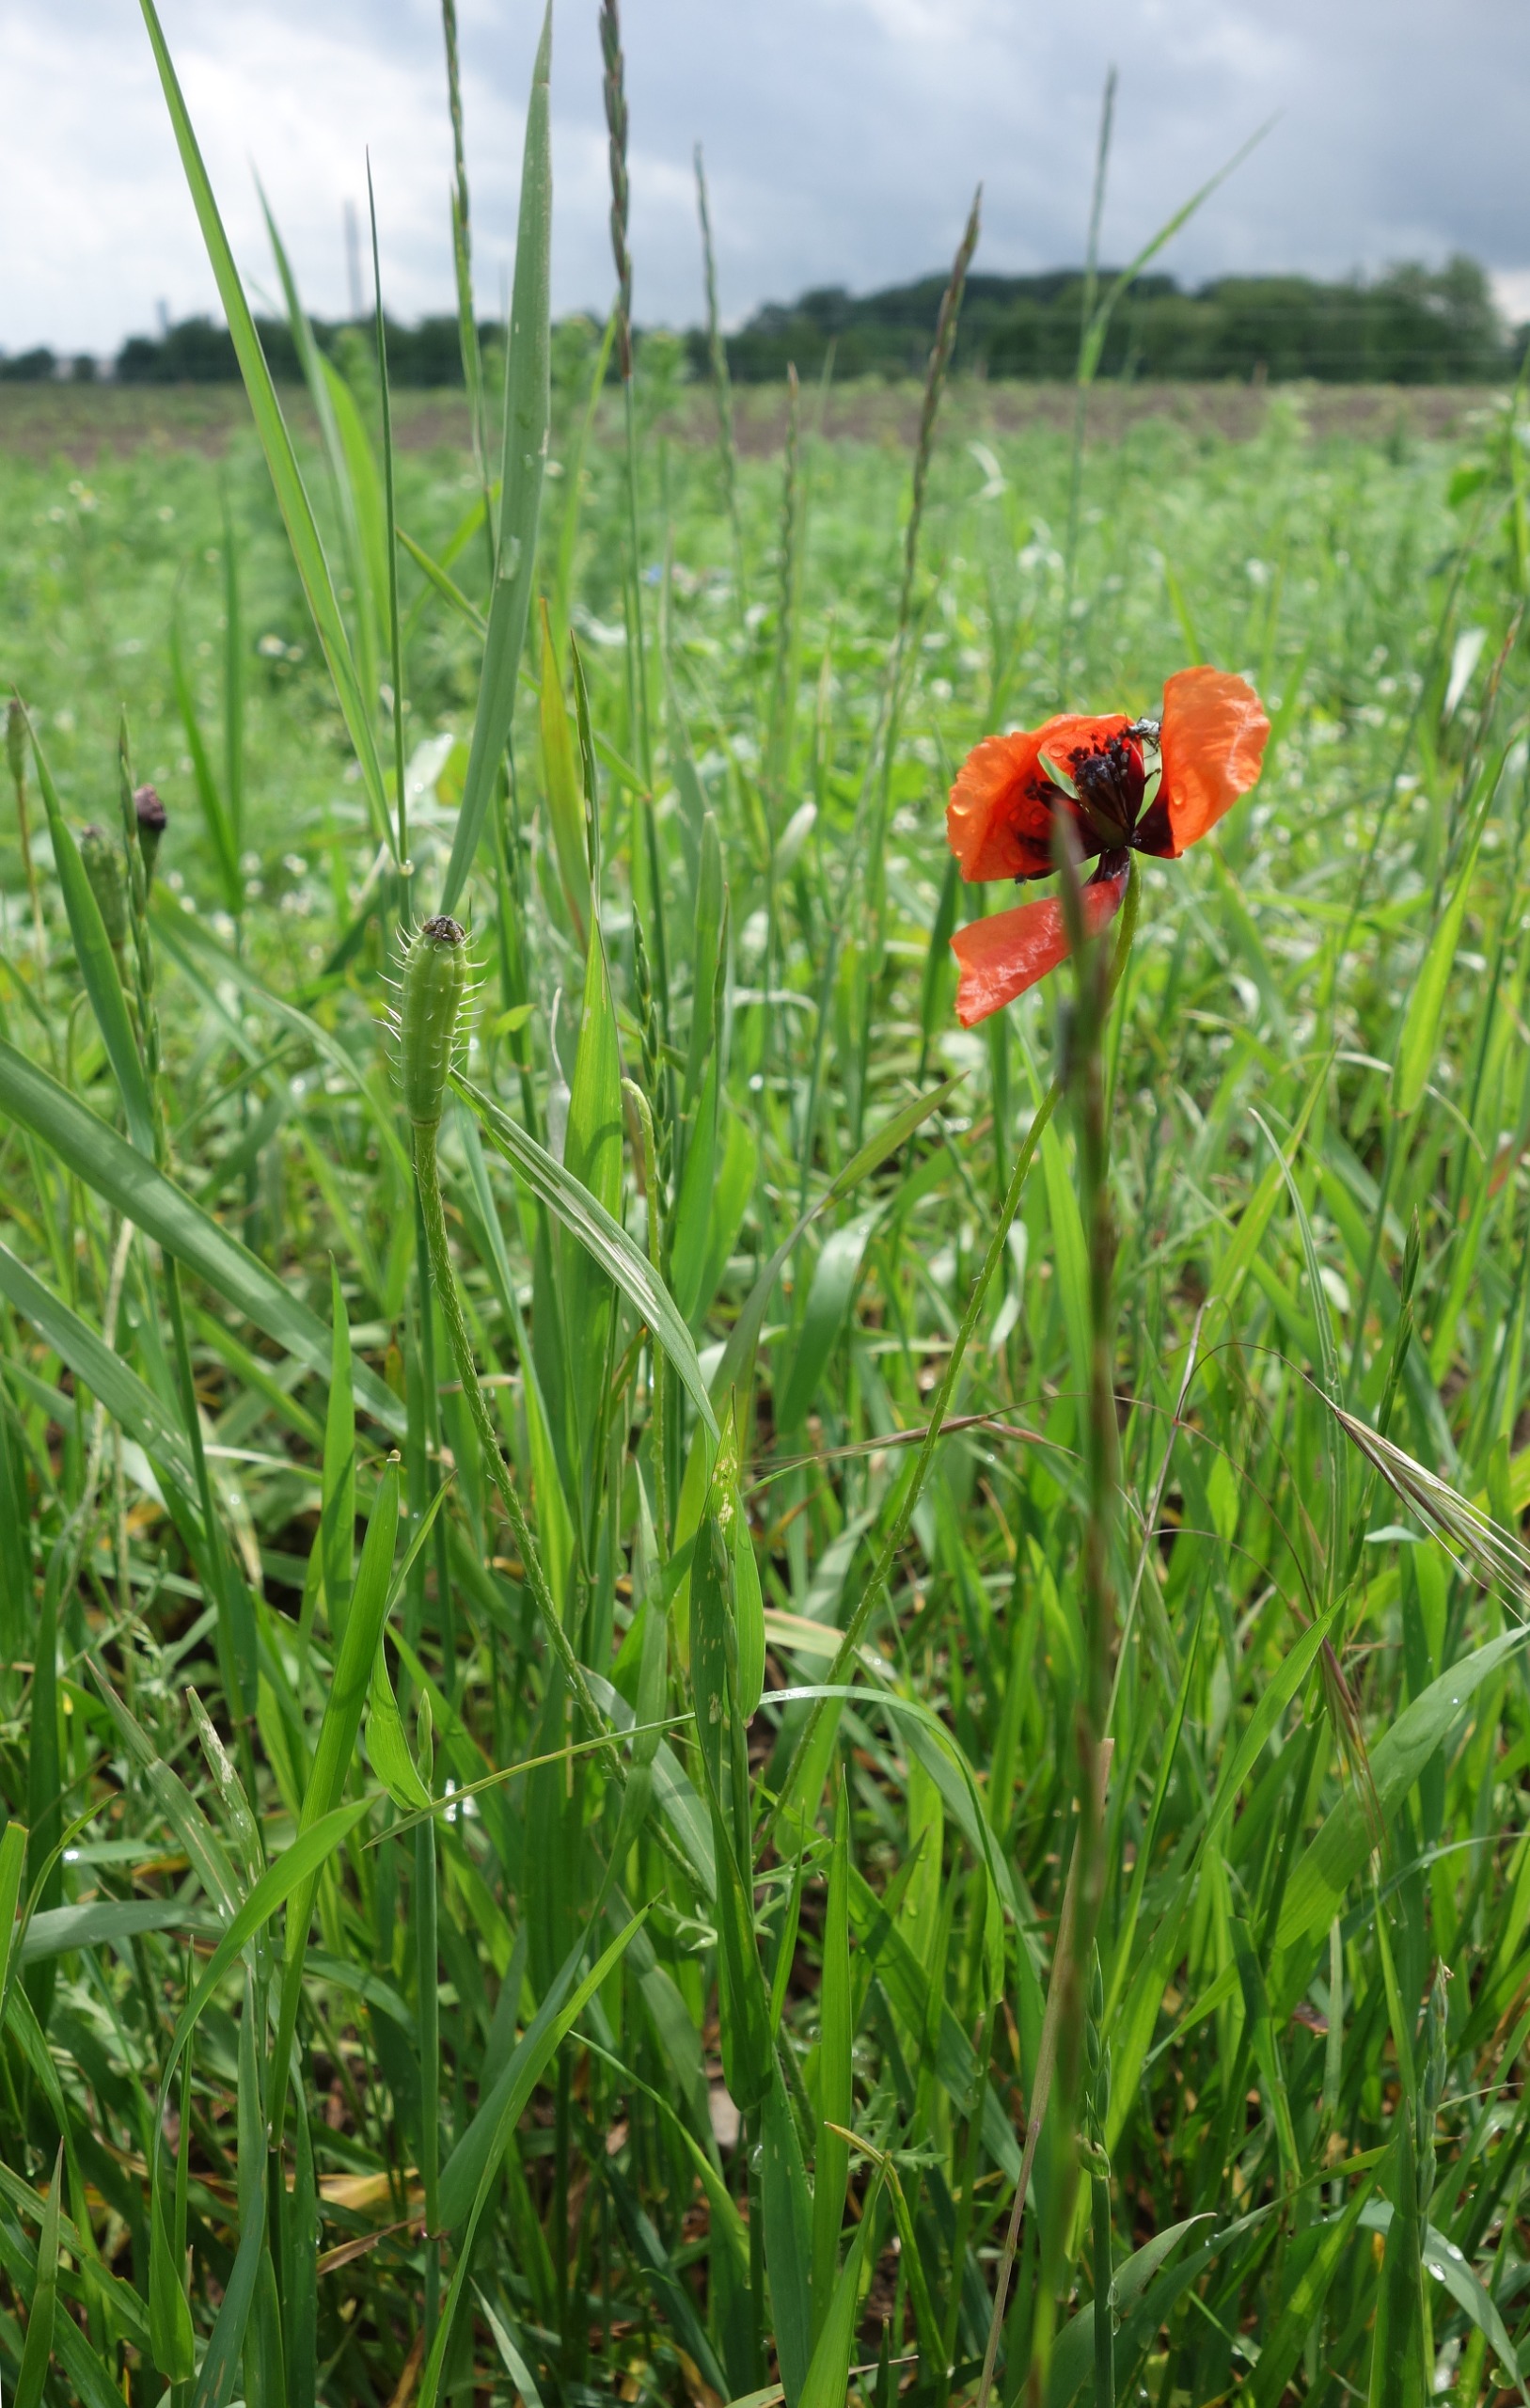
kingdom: Plantae
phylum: Tracheophyta
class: Magnoliopsida
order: Ranunculales
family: Papaveraceae
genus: Roemeria
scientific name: Roemeria argemone
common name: Kølle-valmue
